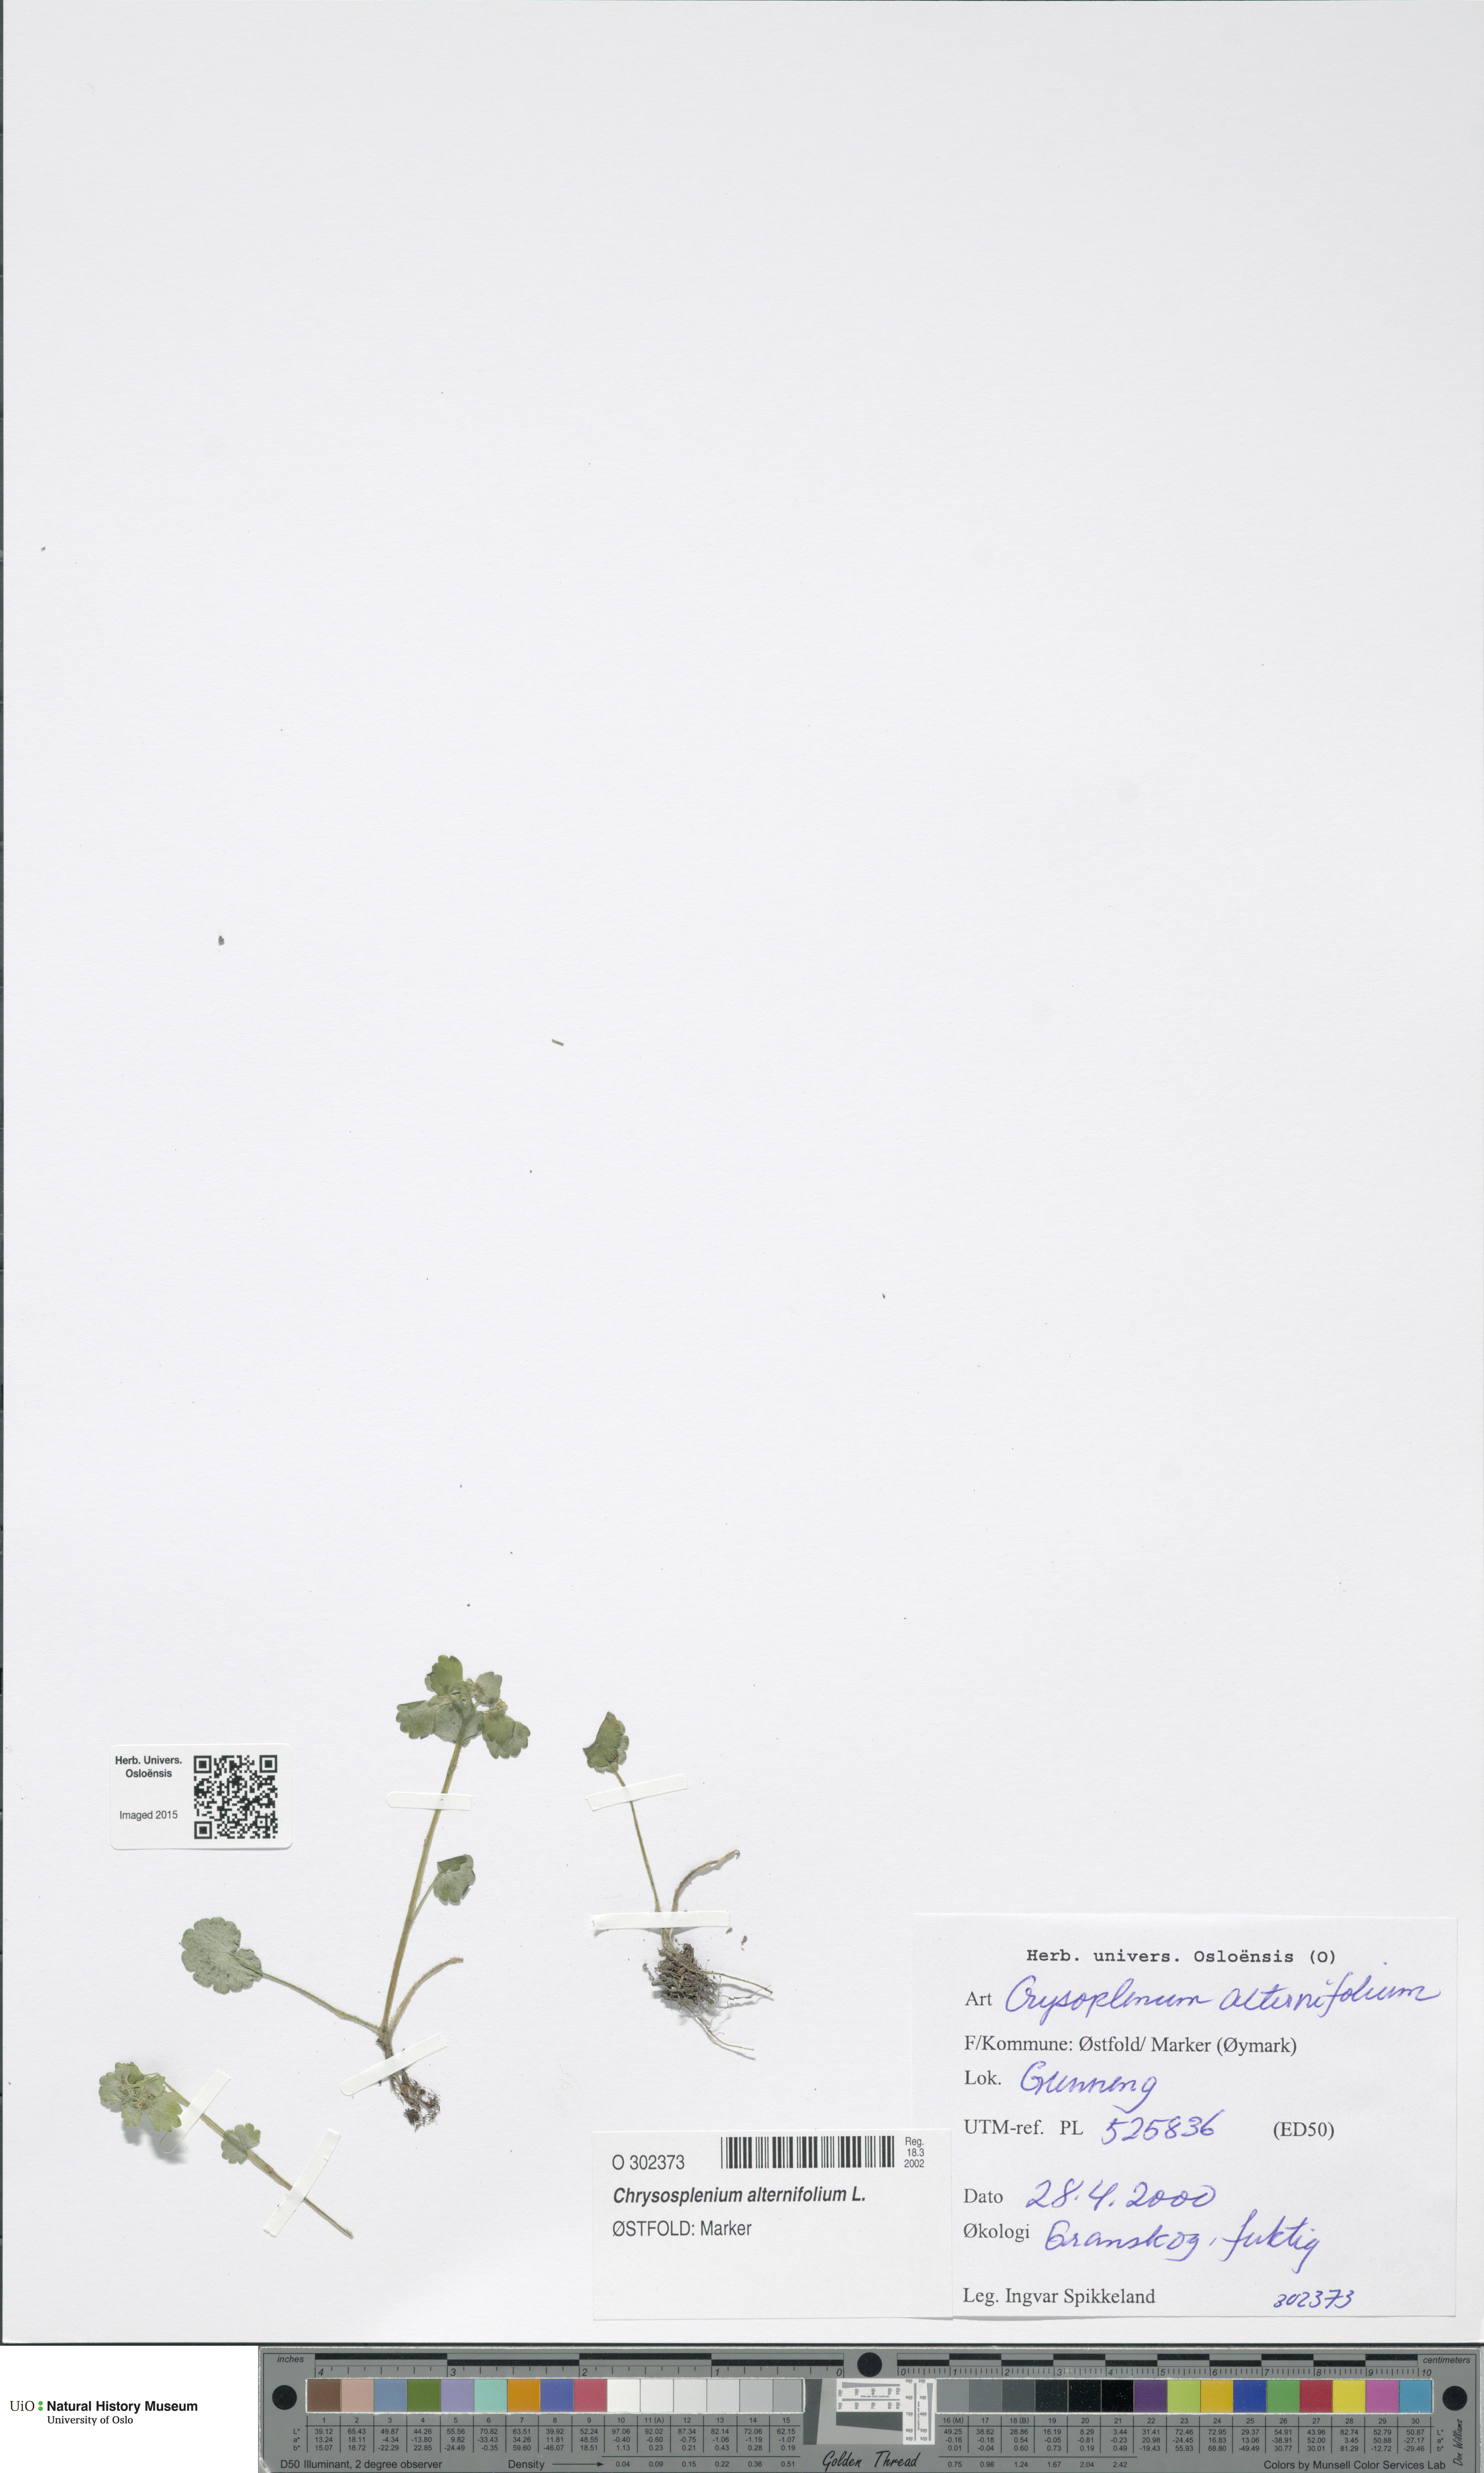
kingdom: Plantae
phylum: Tracheophyta
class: Magnoliopsida
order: Saxifragales
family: Saxifragaceae
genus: Chrysosplenium
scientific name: Chrysosplenium alternifolium
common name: Alternate-leaved golden-saxifrage
